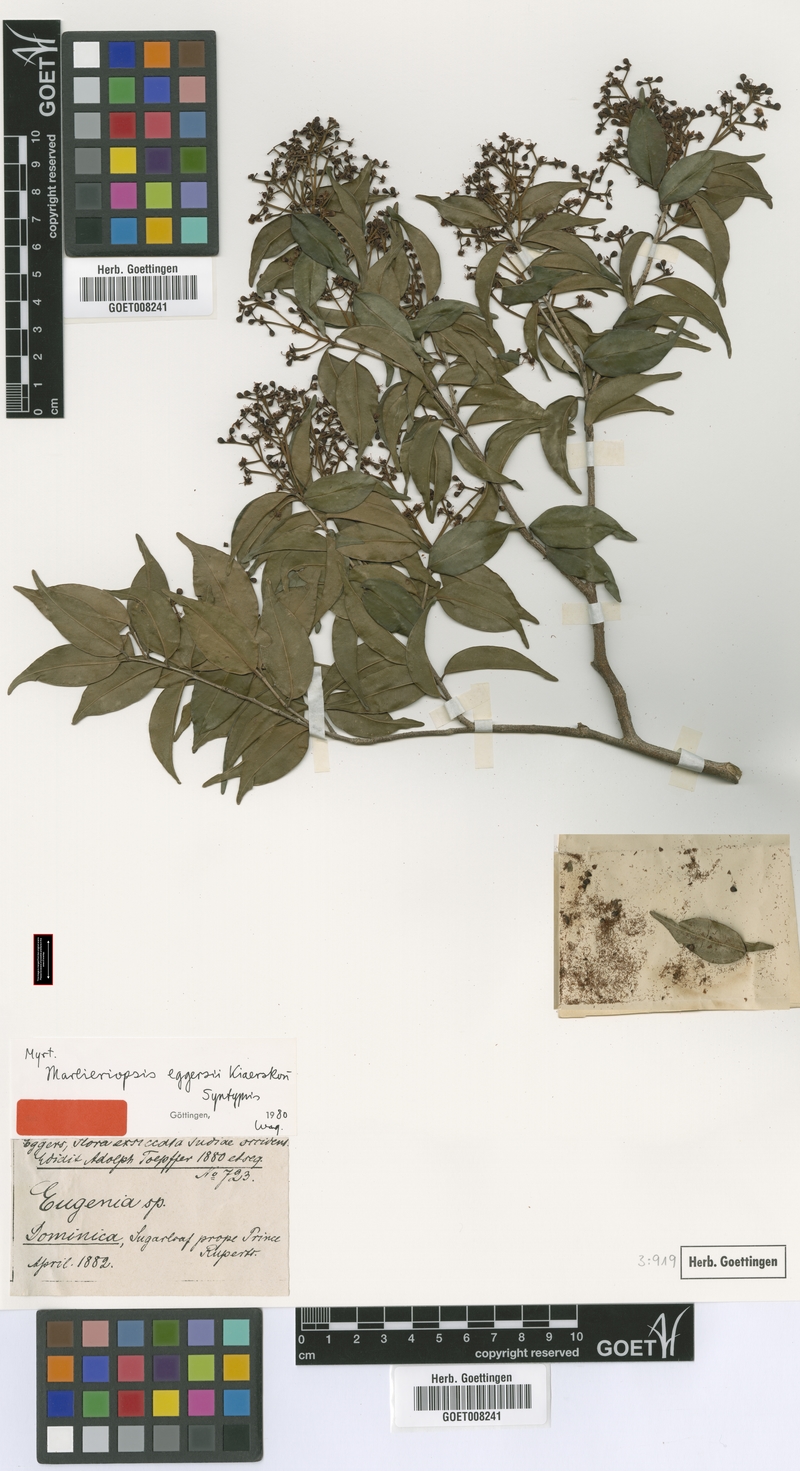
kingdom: Plantae
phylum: Tracheophyta
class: Magnoliopsida
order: Myrtales
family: Myrtaceae
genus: Blepharocalyx
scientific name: Blepharocalyx eggersii
